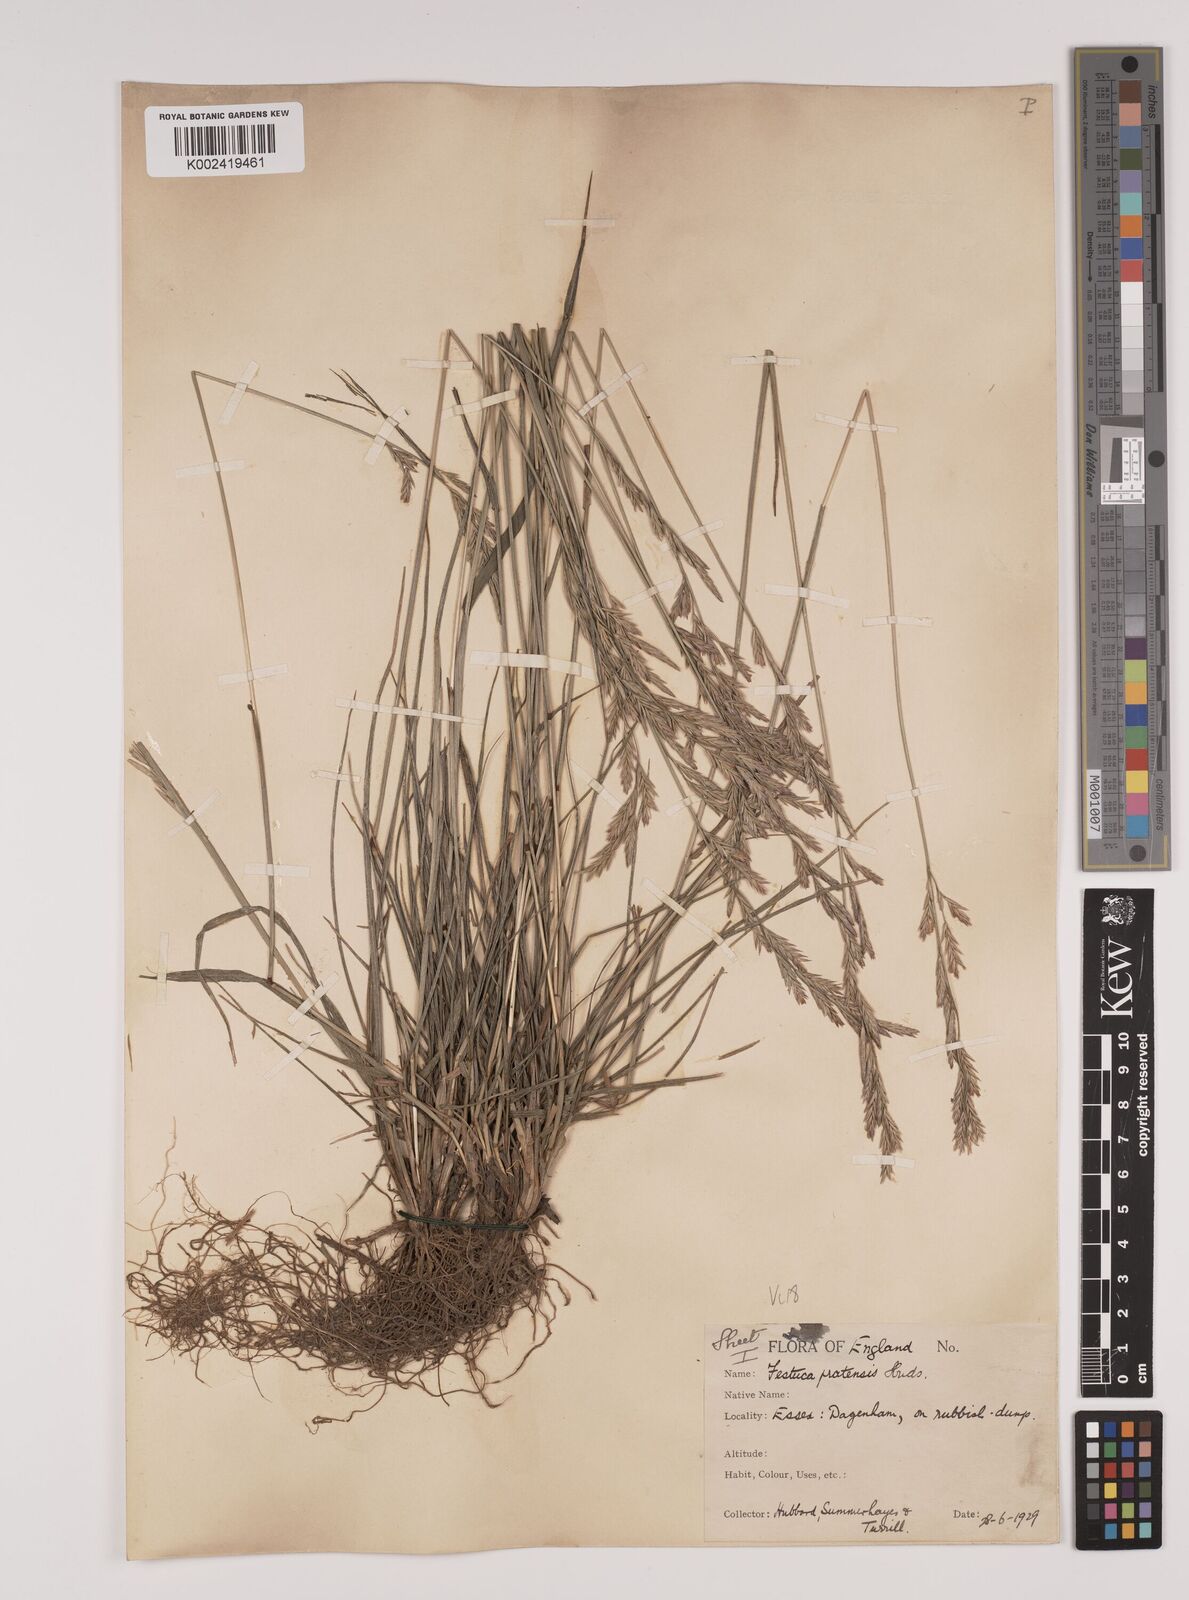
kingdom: Plantae
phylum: Tracheophyta
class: Liliopsida
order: Poales
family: Poaceae
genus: Lolium
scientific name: Lolium pratense
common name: Dover grass
